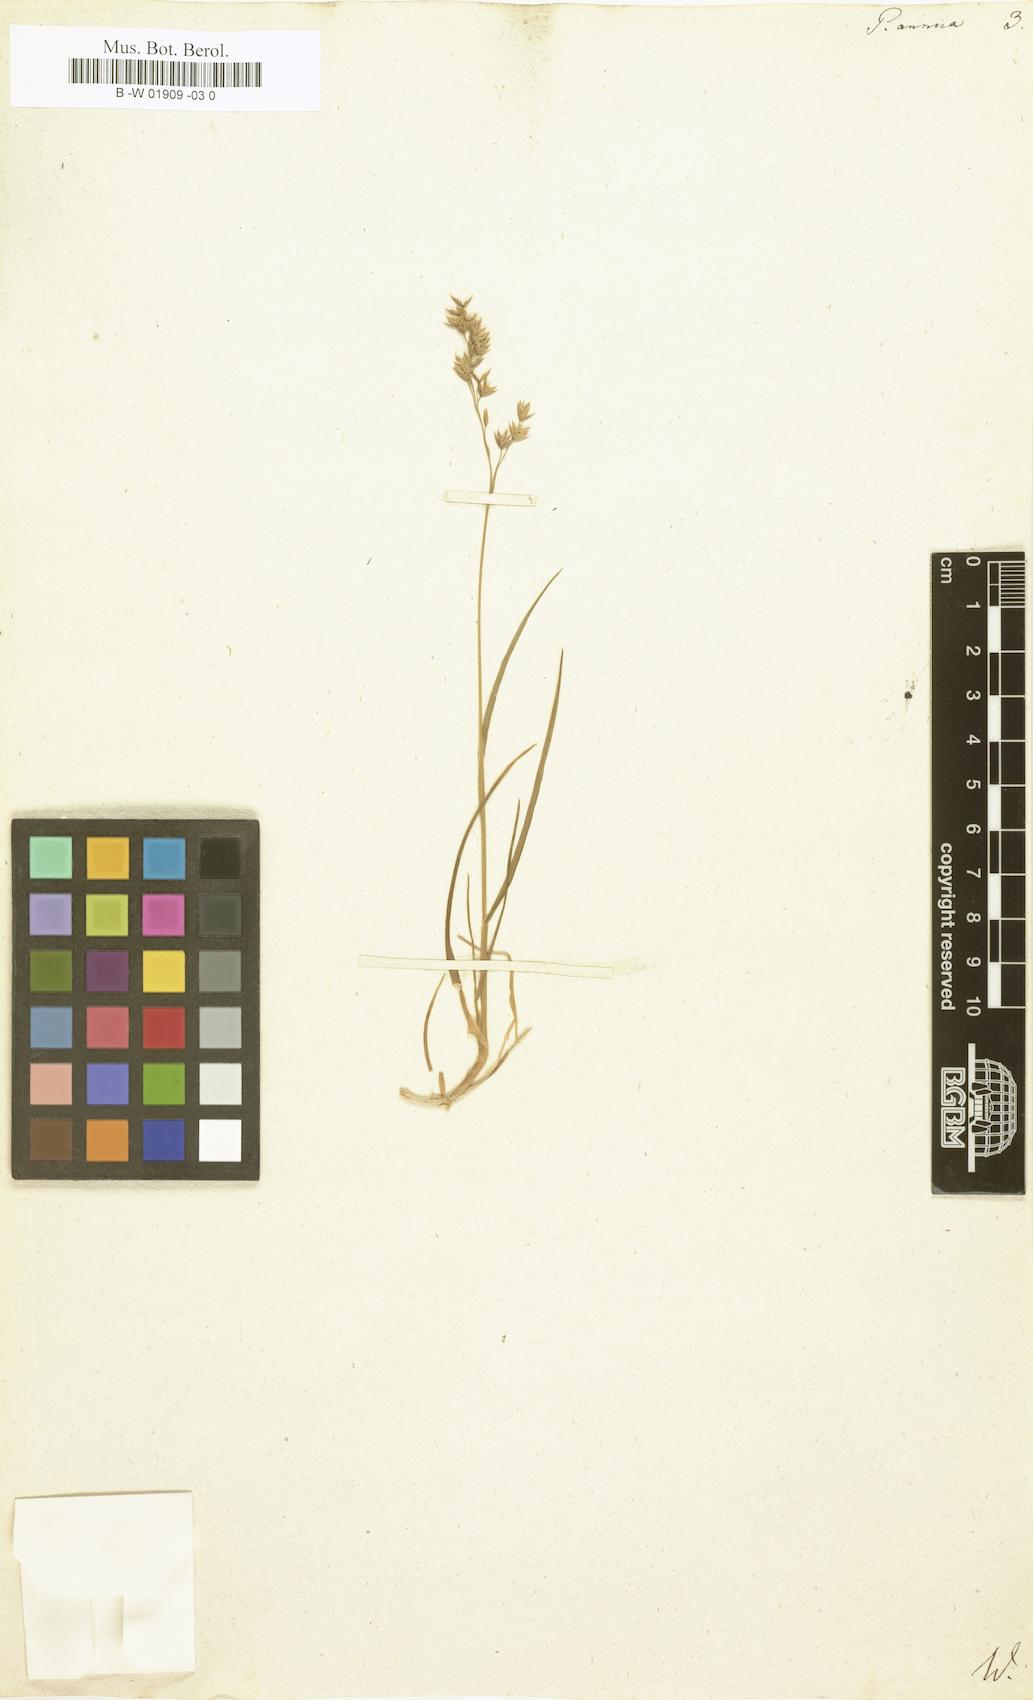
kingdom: Plantae
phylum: Tracheophyta
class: Liliopsida
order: Poales
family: Poaceae
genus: Poa
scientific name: Poa annua
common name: Annual bluegrass
